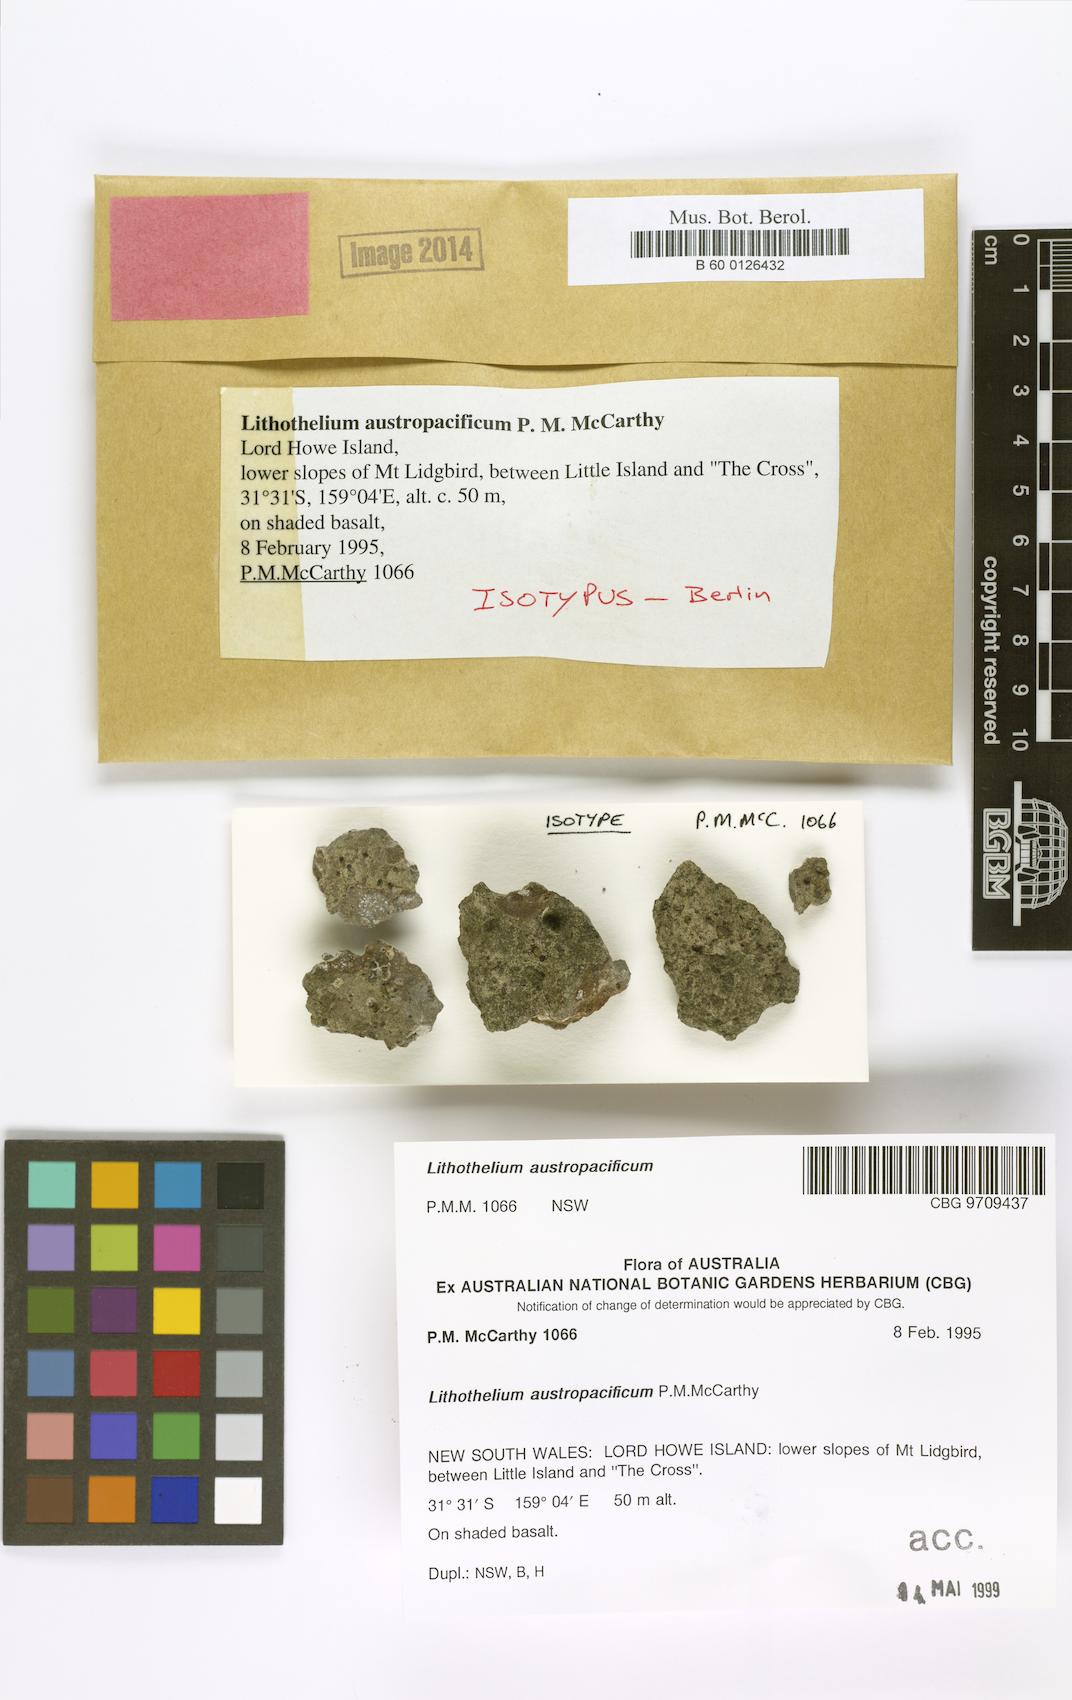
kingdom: Fungi
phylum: Ascomycota
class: Eurotiomycetes
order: Pyrenulales
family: Pyrenulaceae
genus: Lithothelium
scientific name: Lithothelium austropacificum
